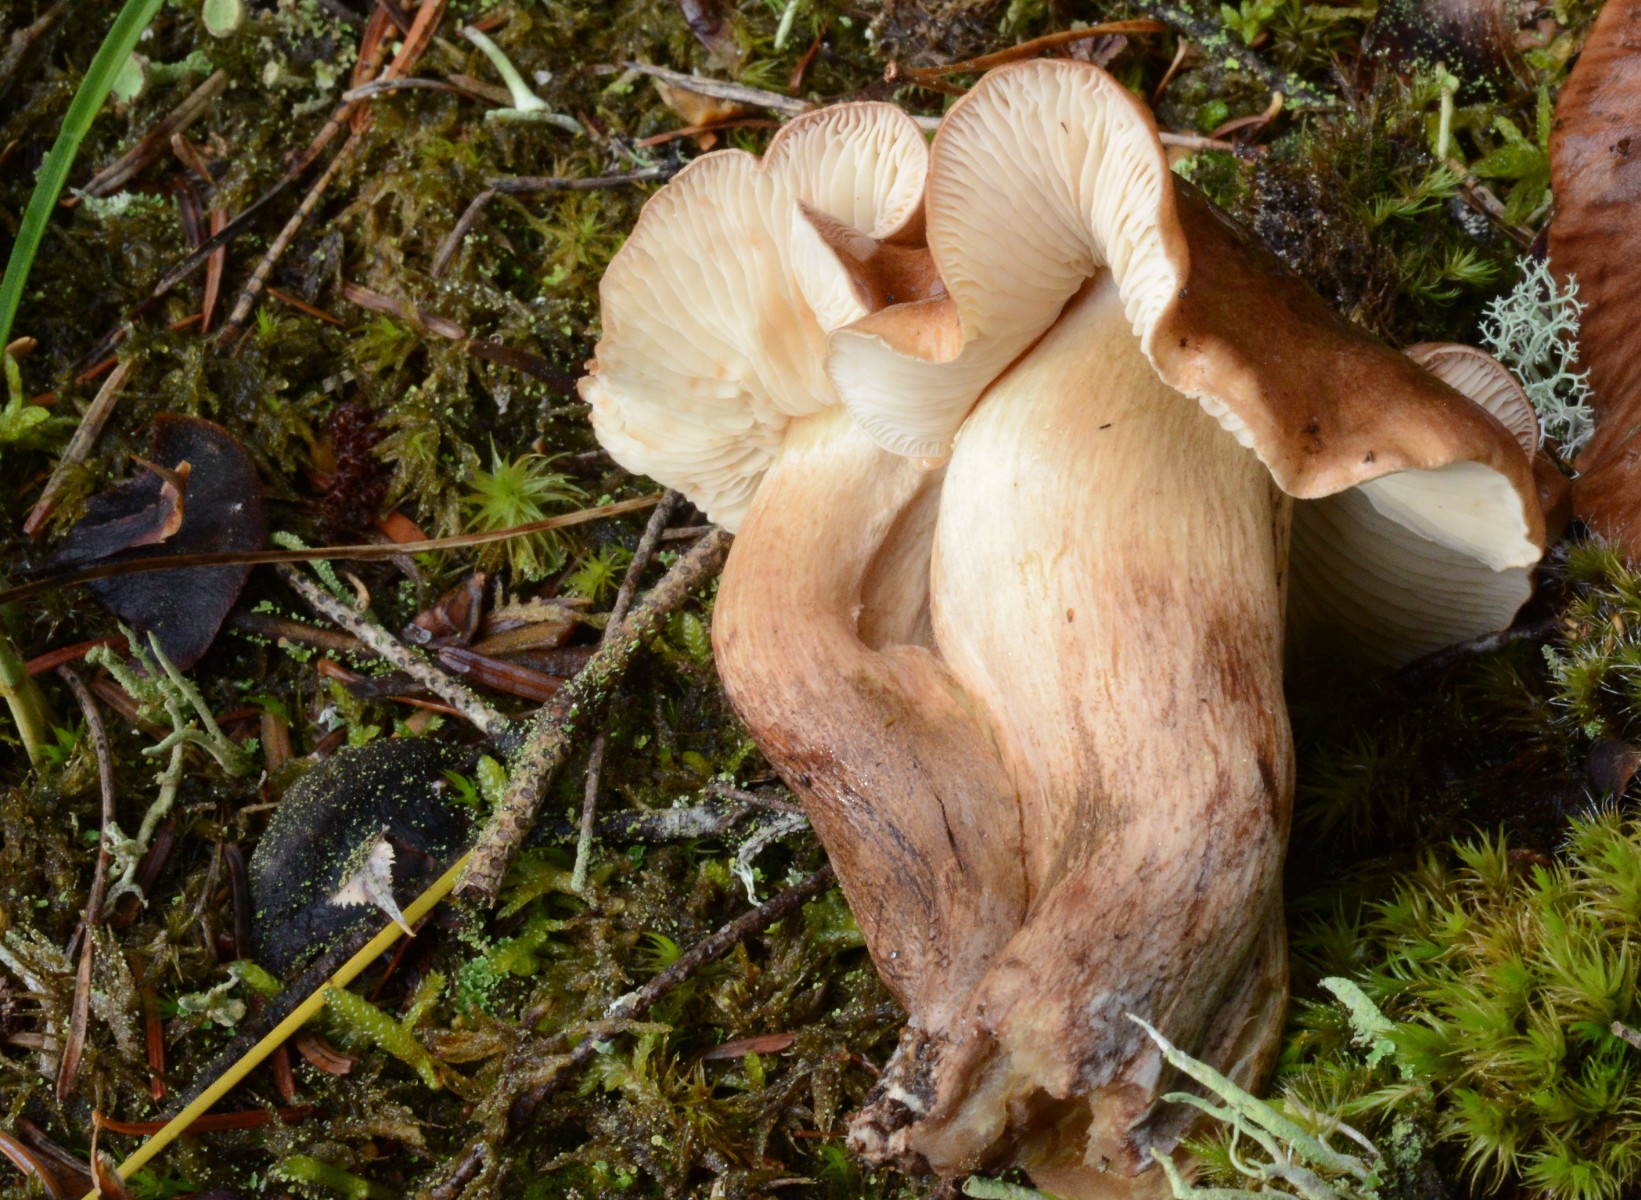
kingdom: Fungi
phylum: Basidiomycota
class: Agaricomycetes
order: Agaricales
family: Tricholomataceae
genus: Tricholoma
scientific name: Tricholoma fulvum
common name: birke-ridderhat
